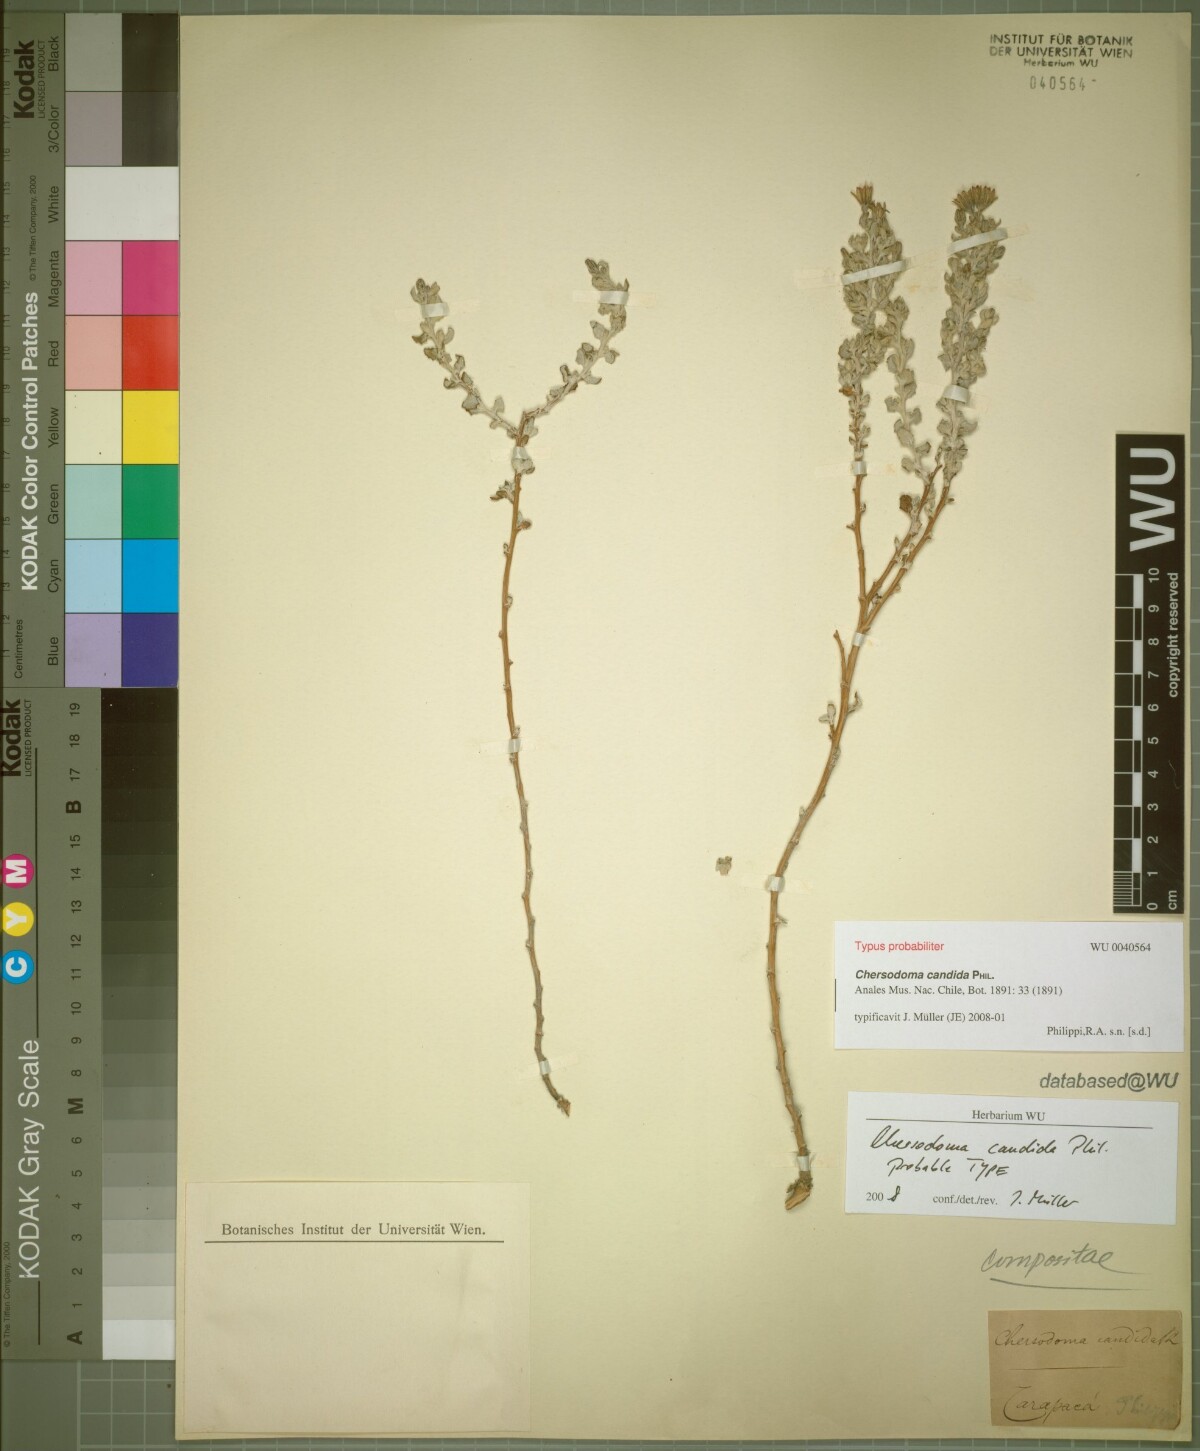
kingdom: Plantae
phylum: Tracheophyta
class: Magnoliopsida
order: Asterales
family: Asteraceae
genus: Chersodoma
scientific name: Chersodoma candida
